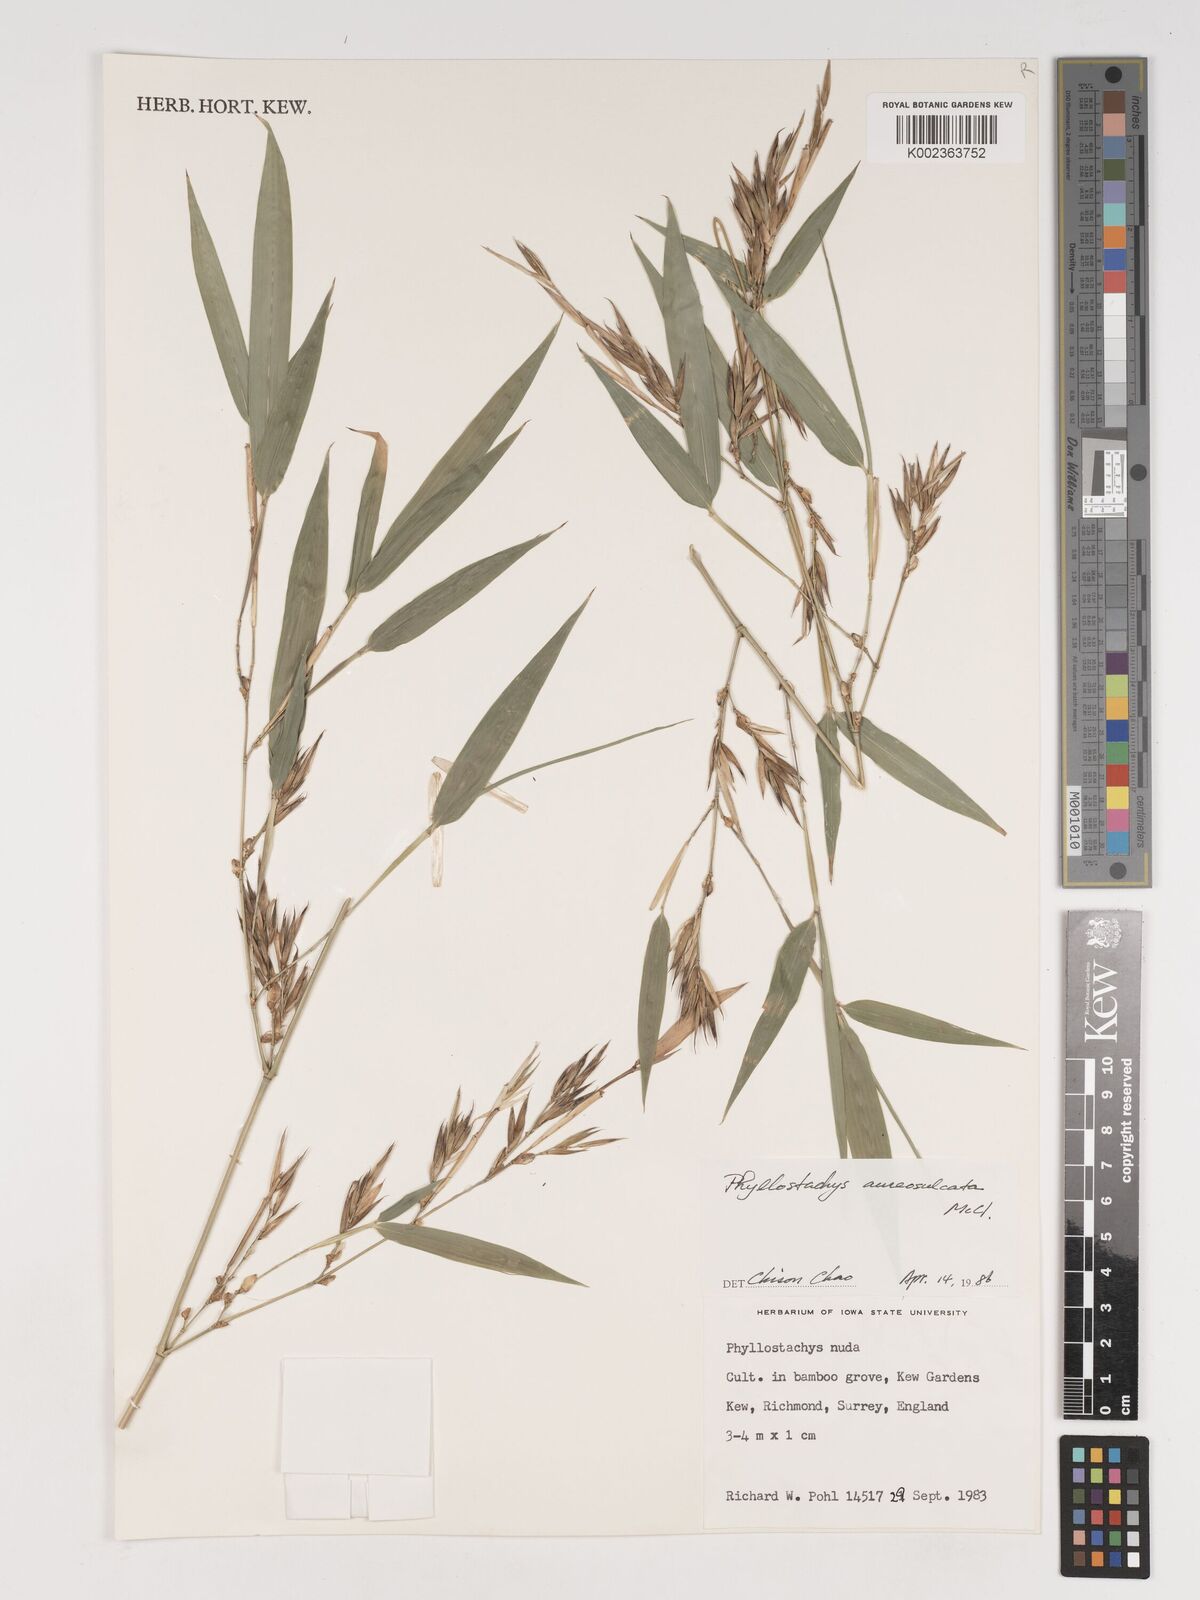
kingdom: Plantae
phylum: Tracheophyta
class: Liliopsida
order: Poales
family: Poaceae
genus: Phyllostachys
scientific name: Phyllostachys aureosulcata
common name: Yellow groove bamboo
